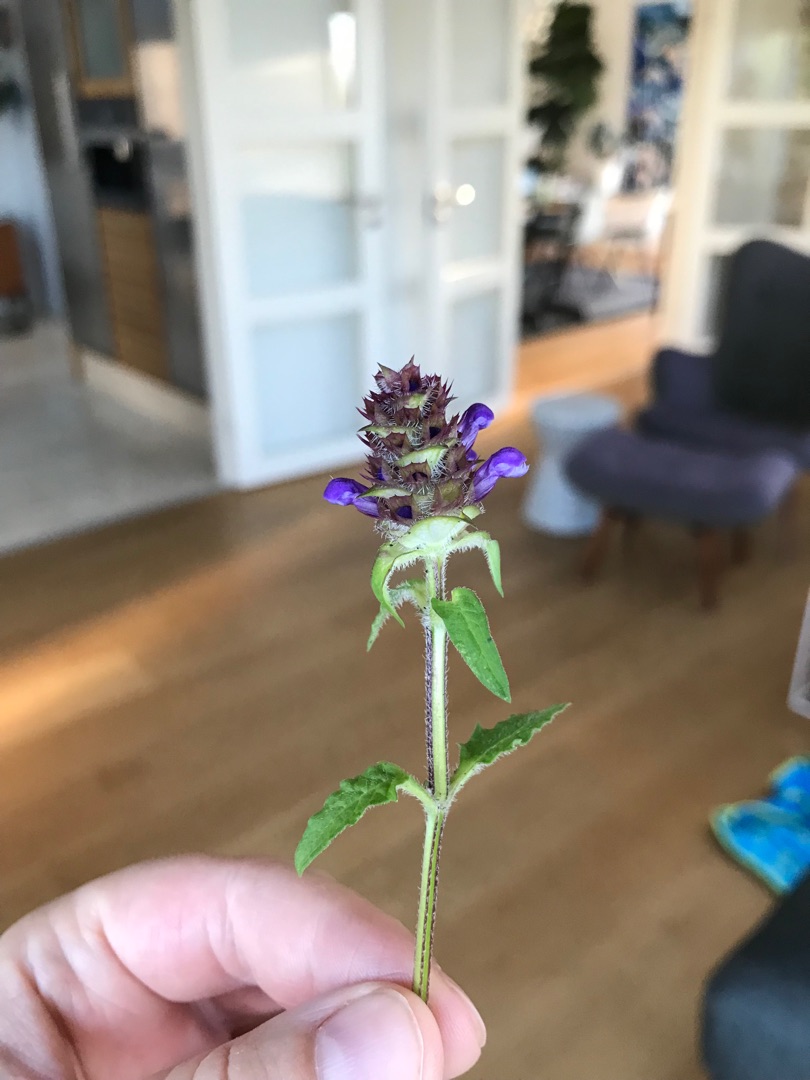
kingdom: Plantae
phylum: Tracheophyta
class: Magnoliopsida
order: Lamiales
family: Lamiaceae
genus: Prunella
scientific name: Prunella vulgaris
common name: Almindelig brunelle
